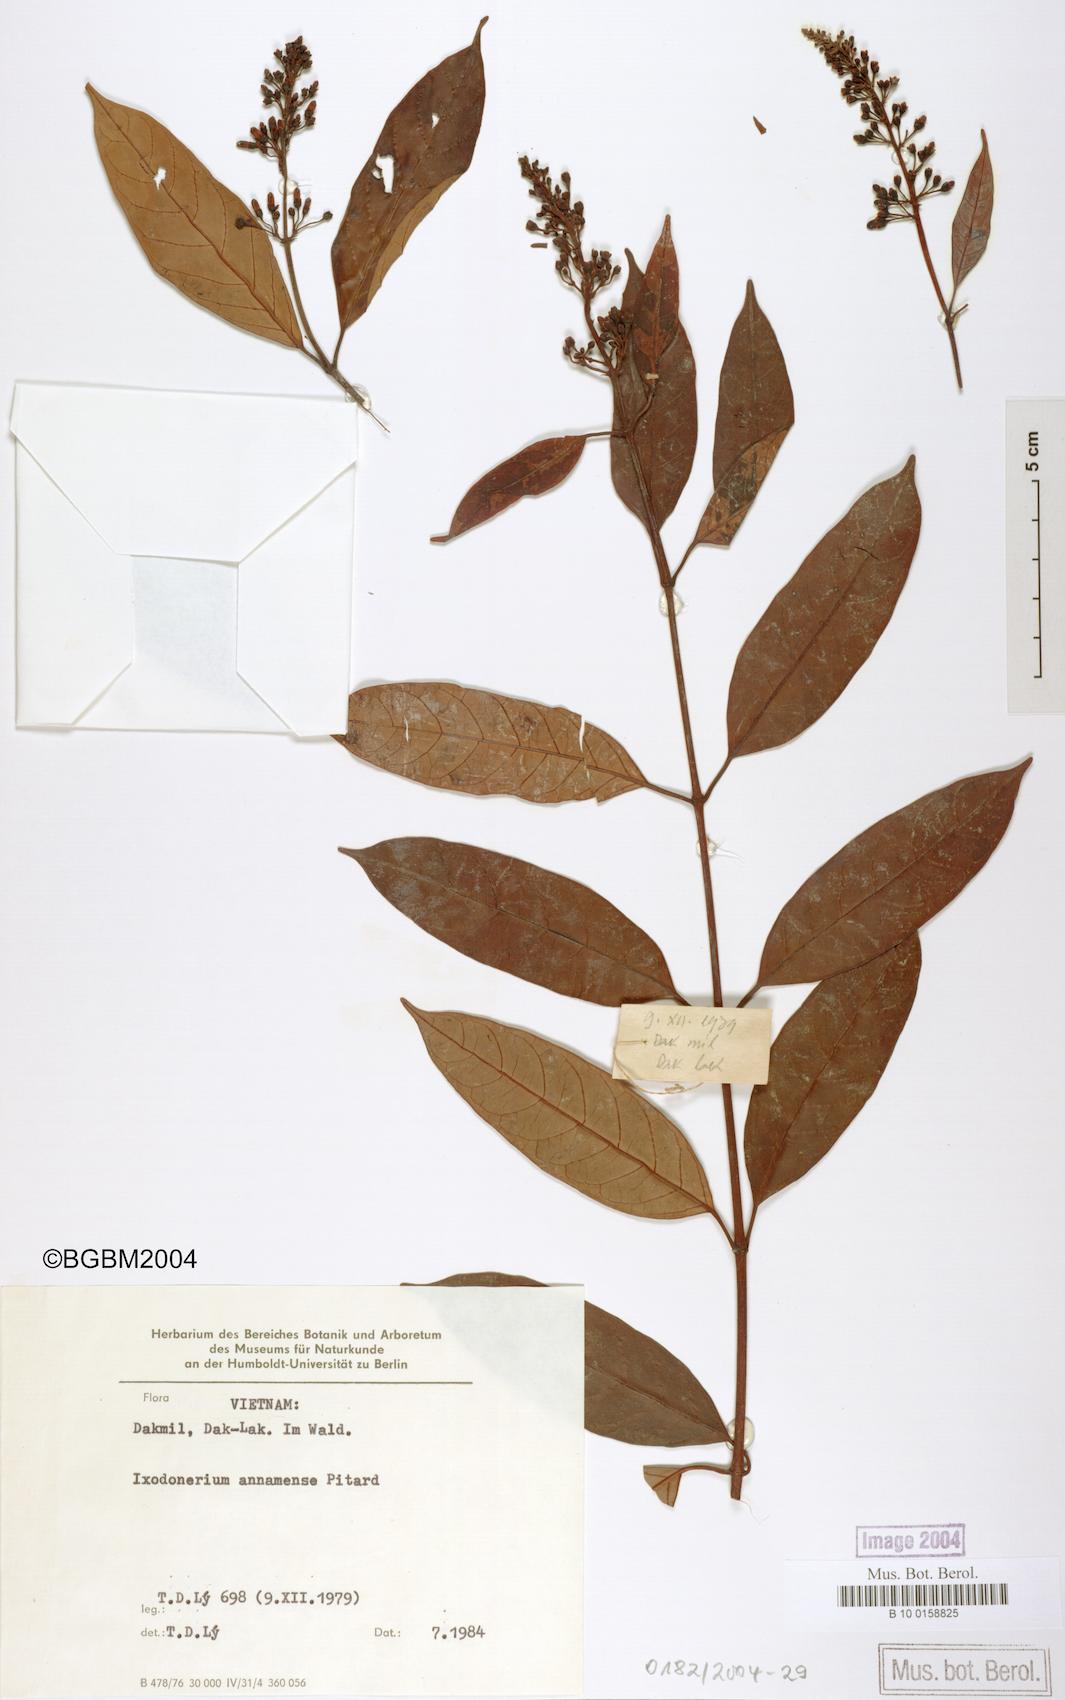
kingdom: Plantae
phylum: Tracheophyta
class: Magnoliopsida
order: Gentianales
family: Apocynaceae
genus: Ixodonerium
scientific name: Ixodonerium annamense
